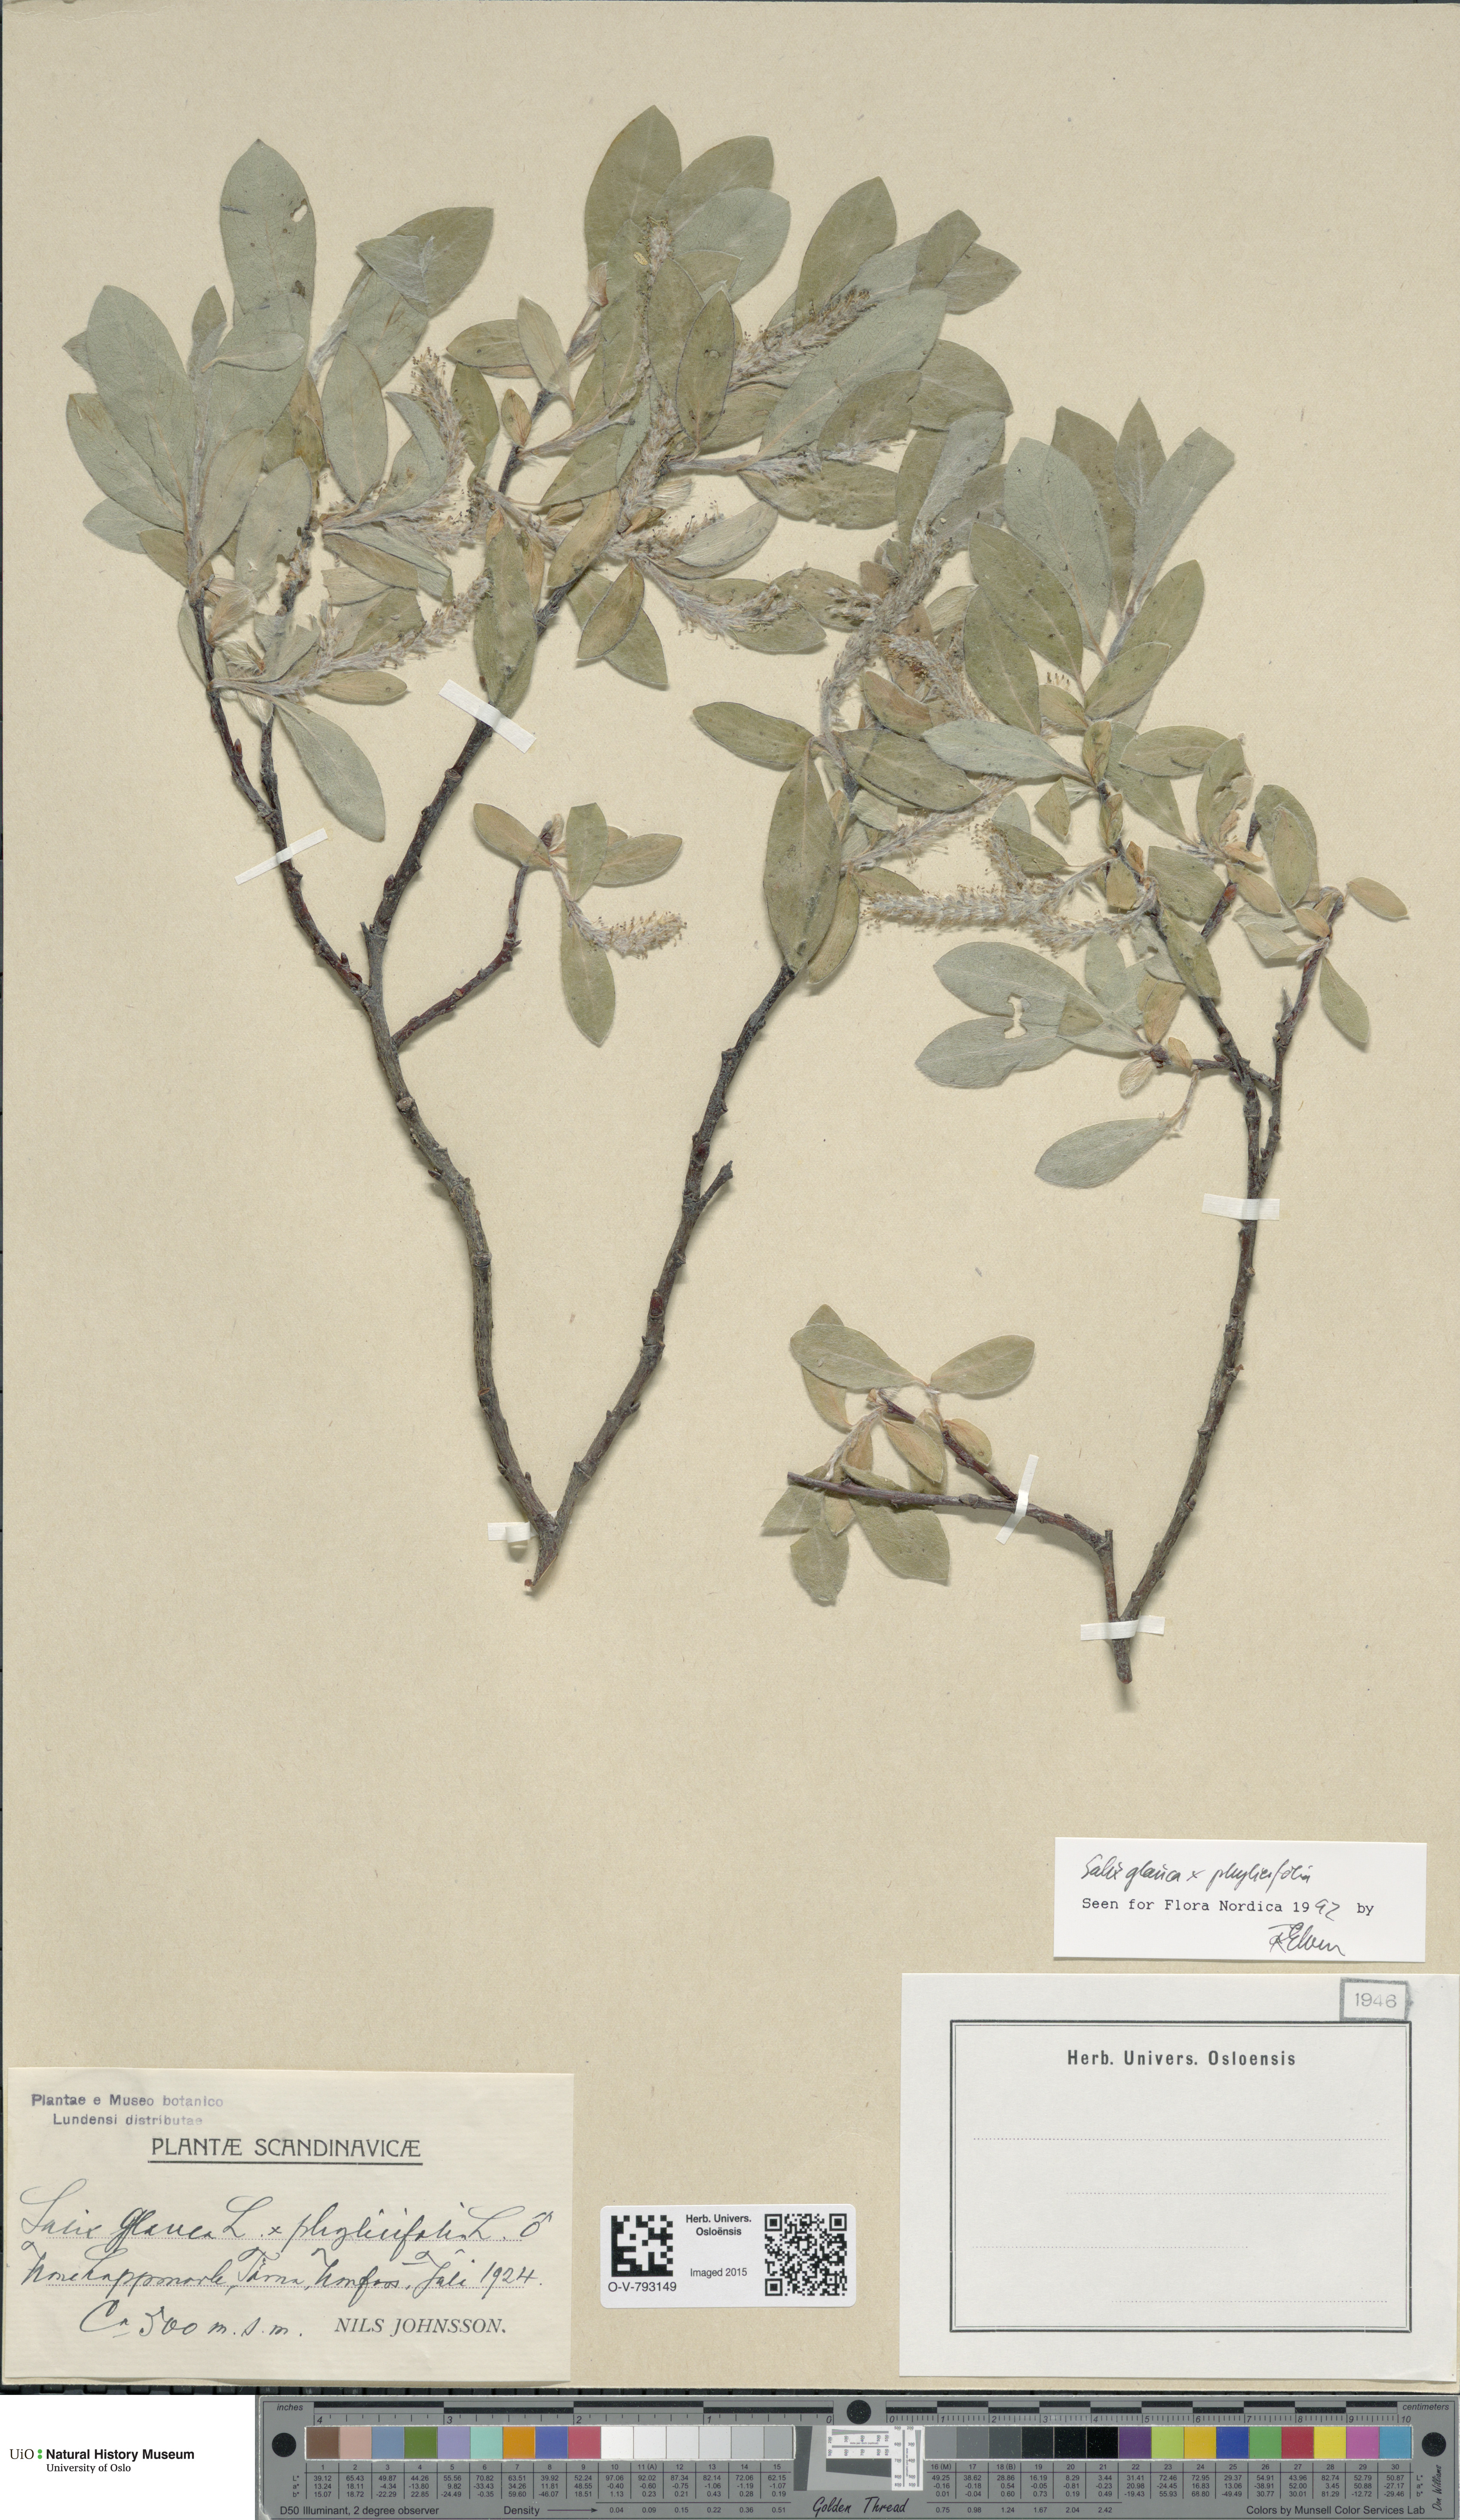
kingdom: Plantae
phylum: Tracheophyta
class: Magnoliopsida
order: Malpighiales
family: Salicaceae
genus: Salix
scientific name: Salix
